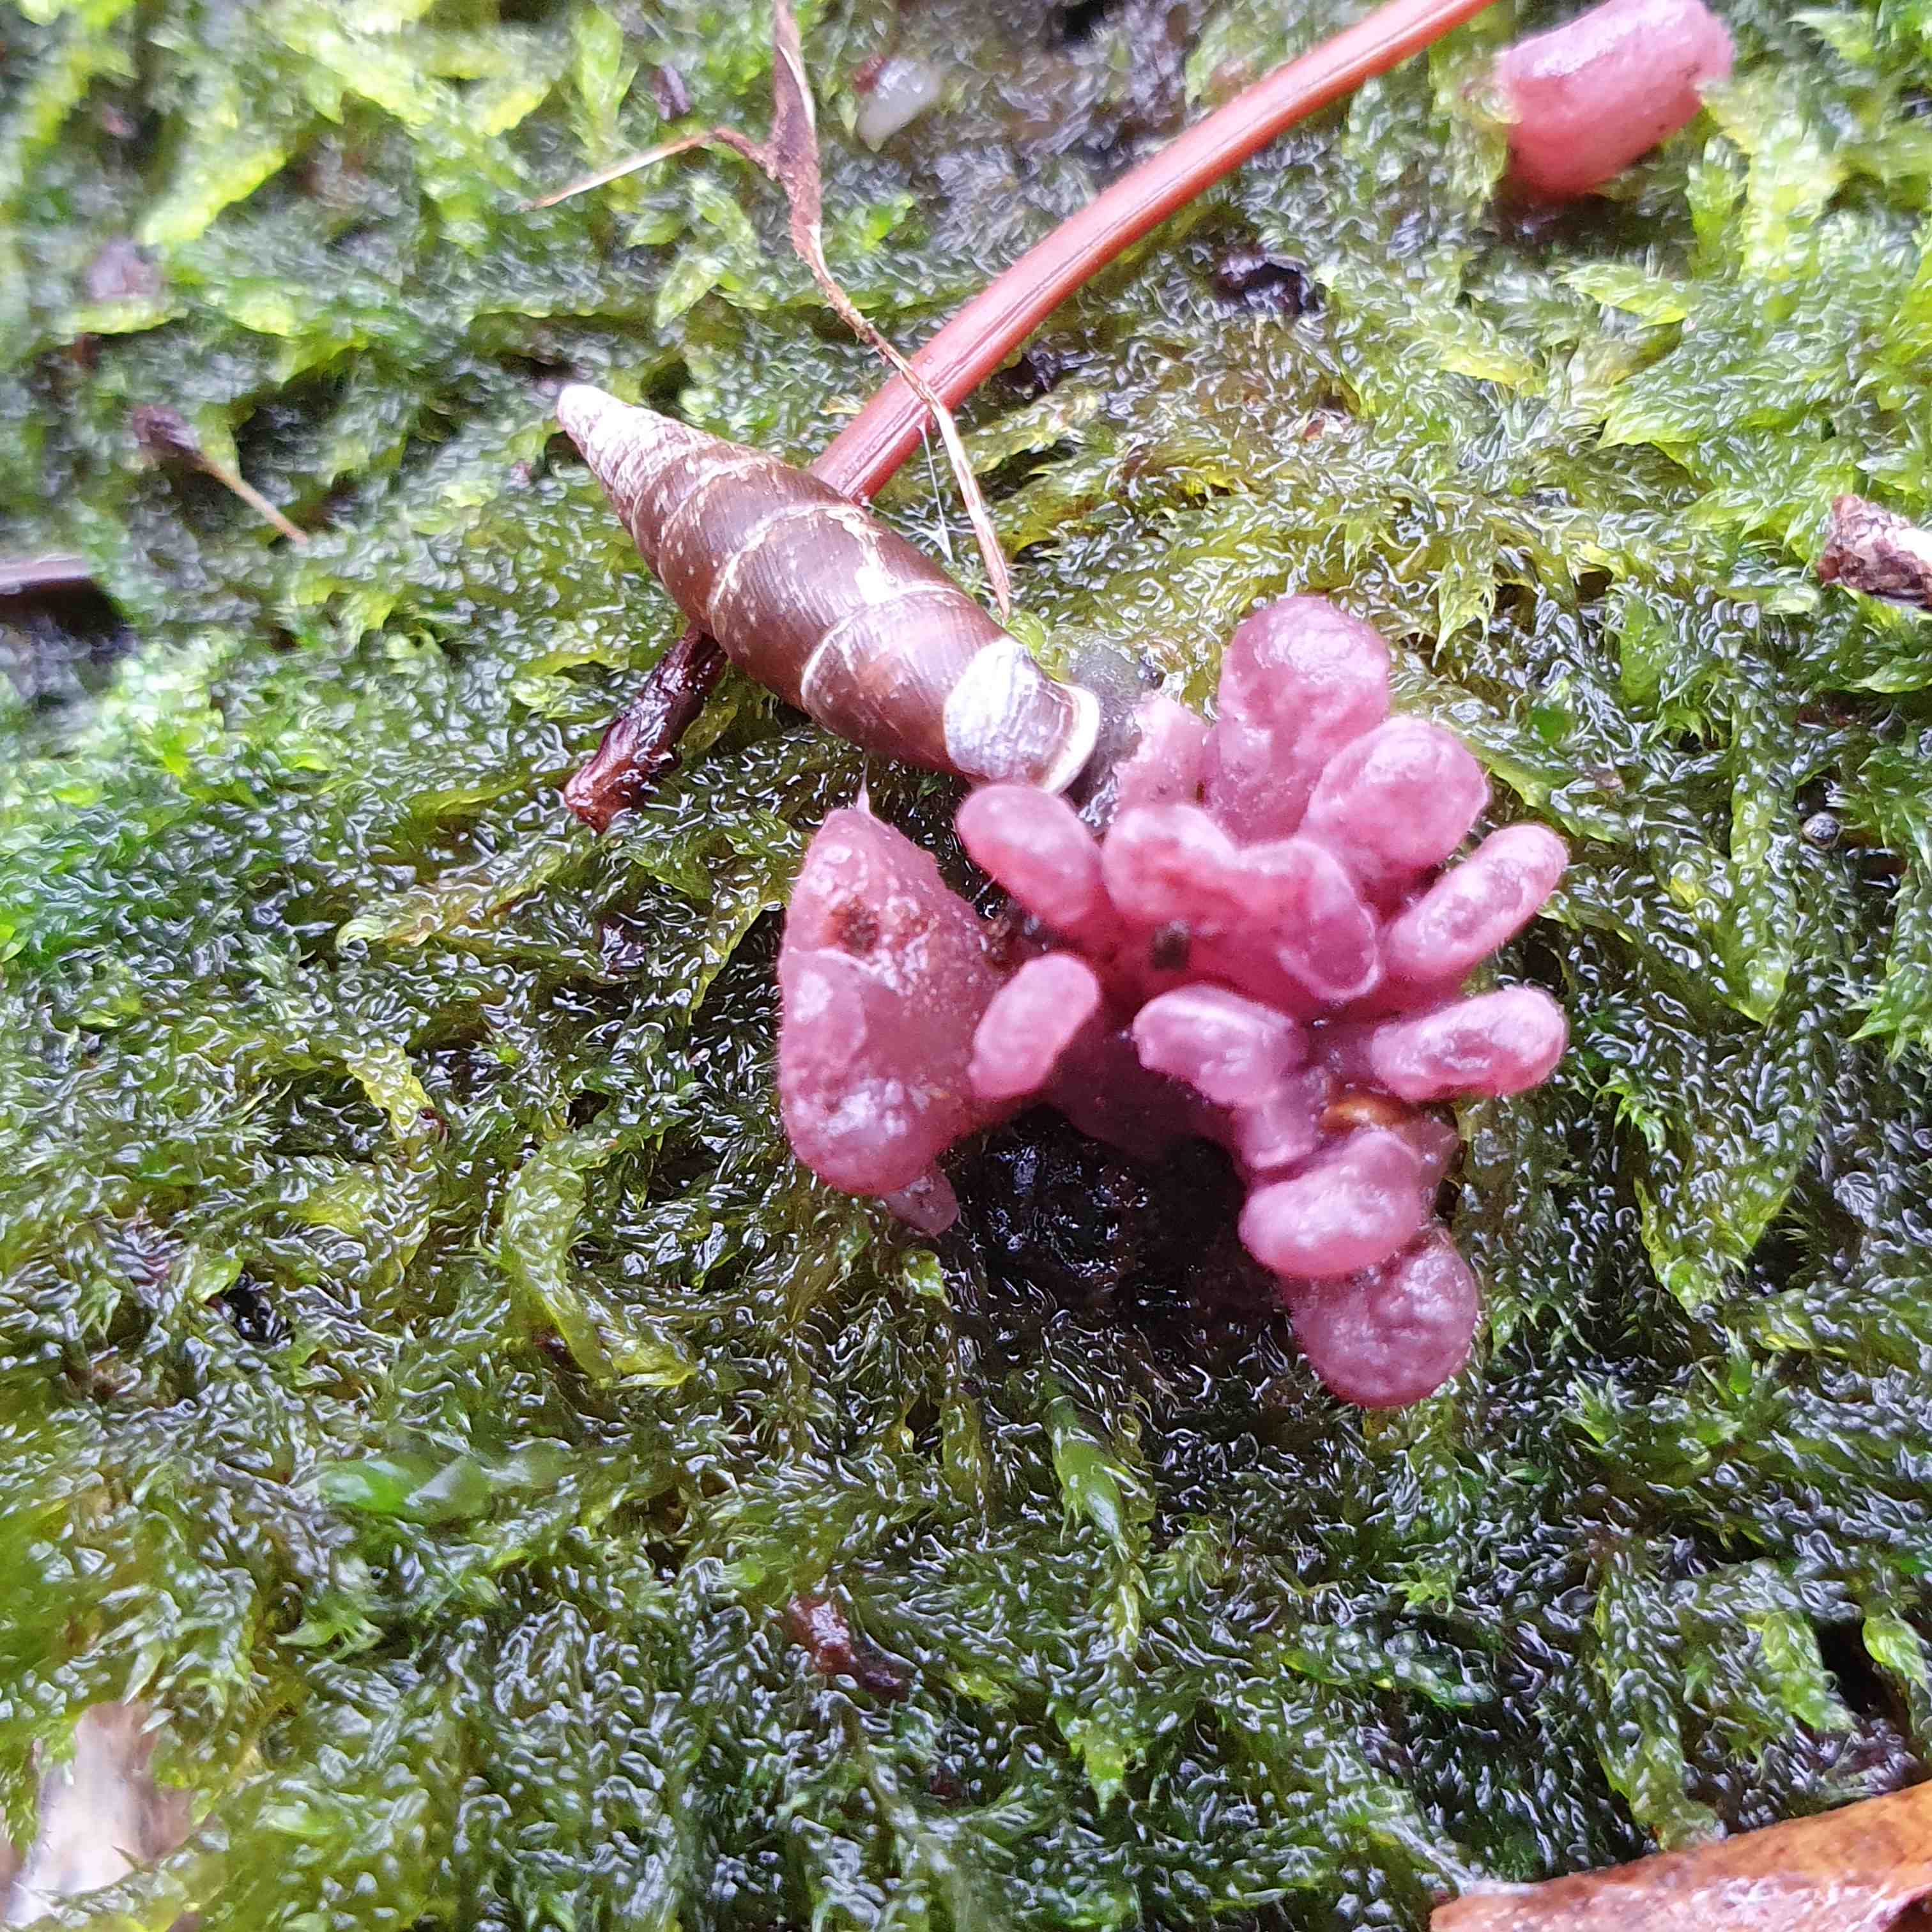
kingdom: Fungi
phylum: Ascomycota
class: Leotiomycetes
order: Helotiales
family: Gelatinodiscaceae
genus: Ascocoryne
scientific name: Ascocoryne sarcoides
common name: rødlilla sejskive
